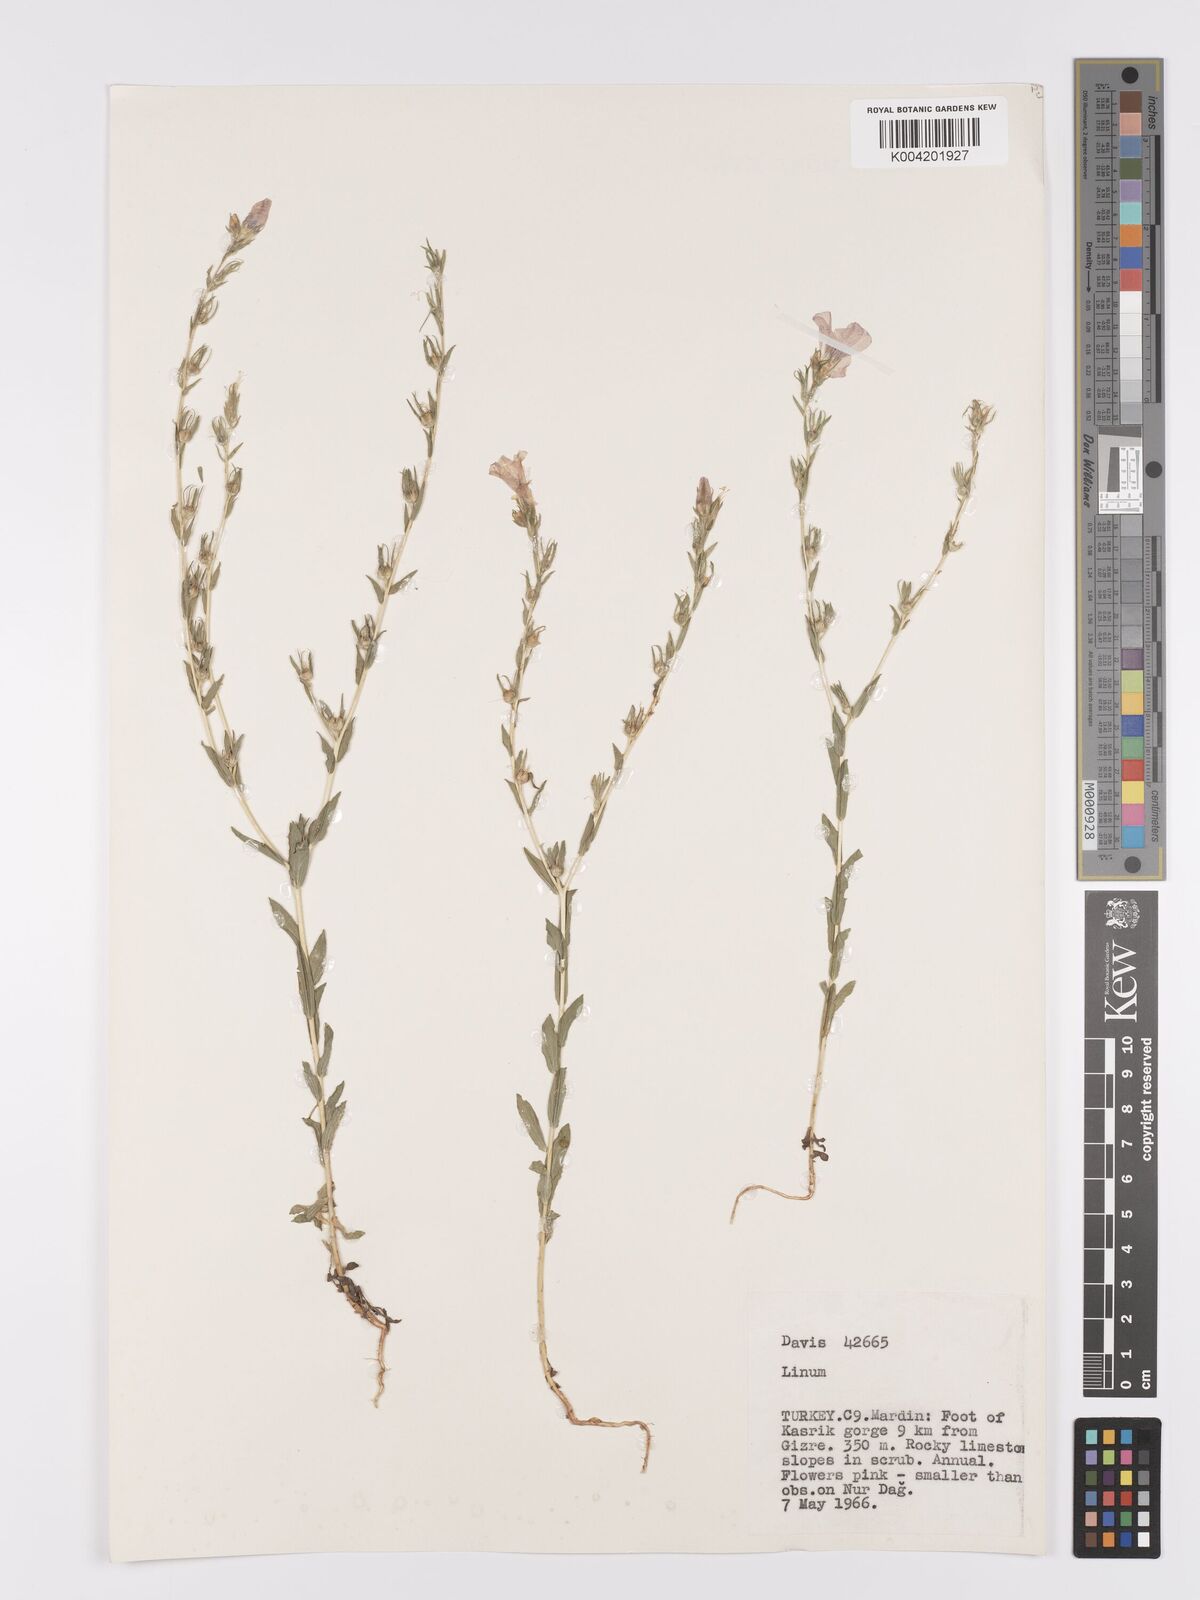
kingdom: Plantae
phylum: Tracheophyta
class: Magnoliopsida
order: Malpighiales
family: Linaceae
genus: Linum
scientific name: Linum
